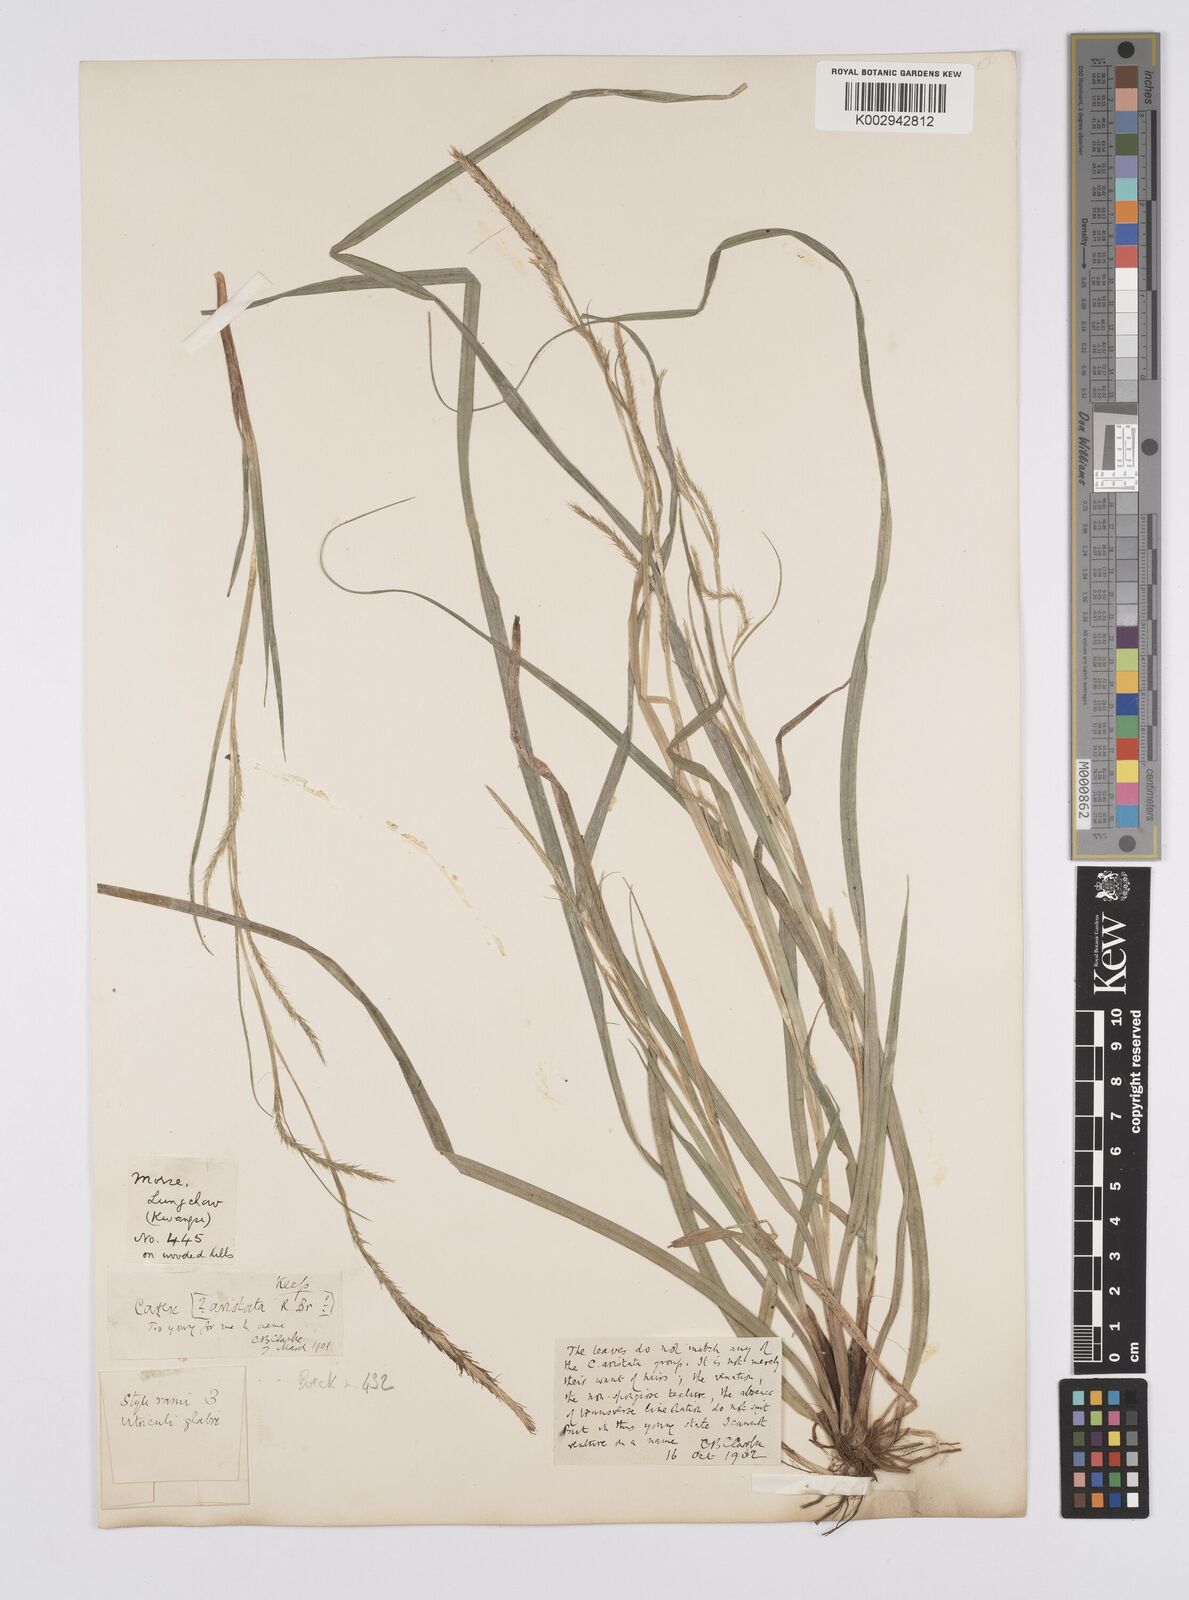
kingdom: Plantae
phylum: Tracheophyta
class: Liliopsida
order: Poales
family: Cyperaceae
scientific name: Cyperaceae
